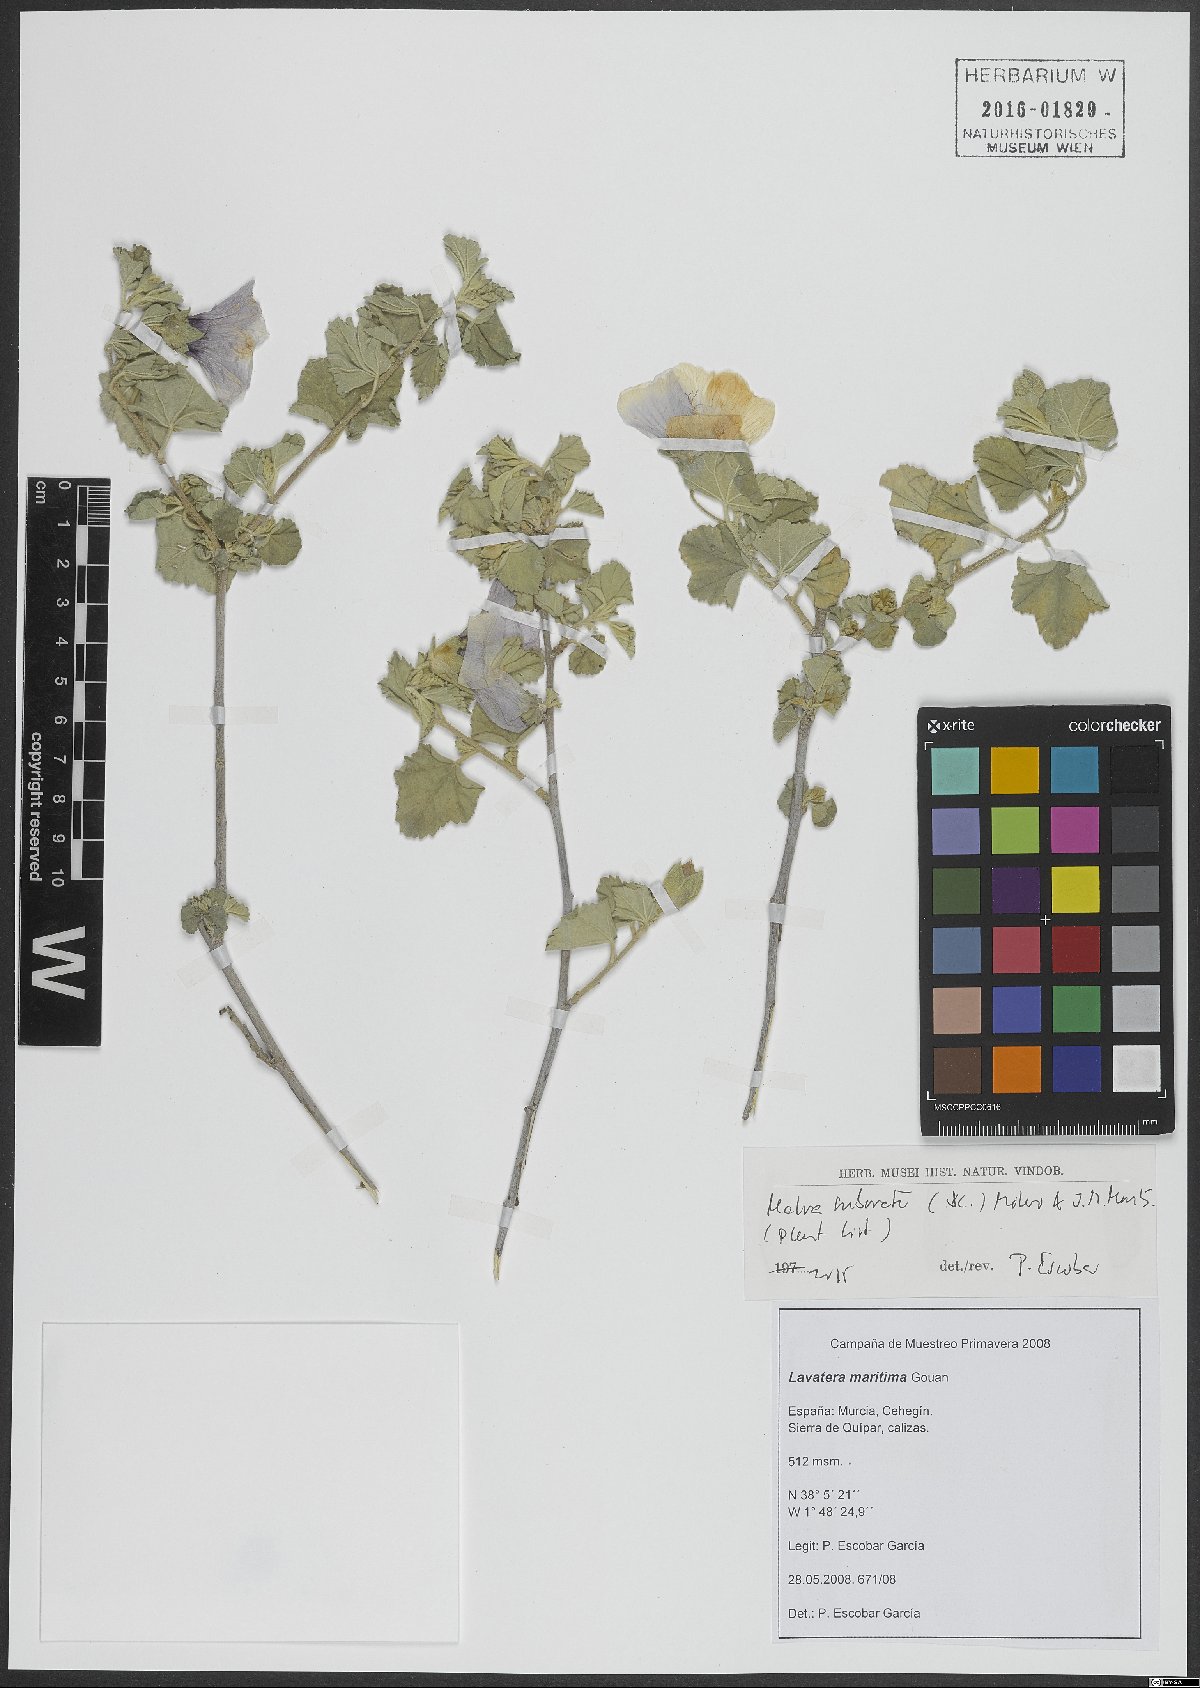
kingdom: Plantae
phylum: Tracheophyta
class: Magnoliopsida
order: Malvales
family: Malvaceae
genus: Malva
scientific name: Malva subovata
